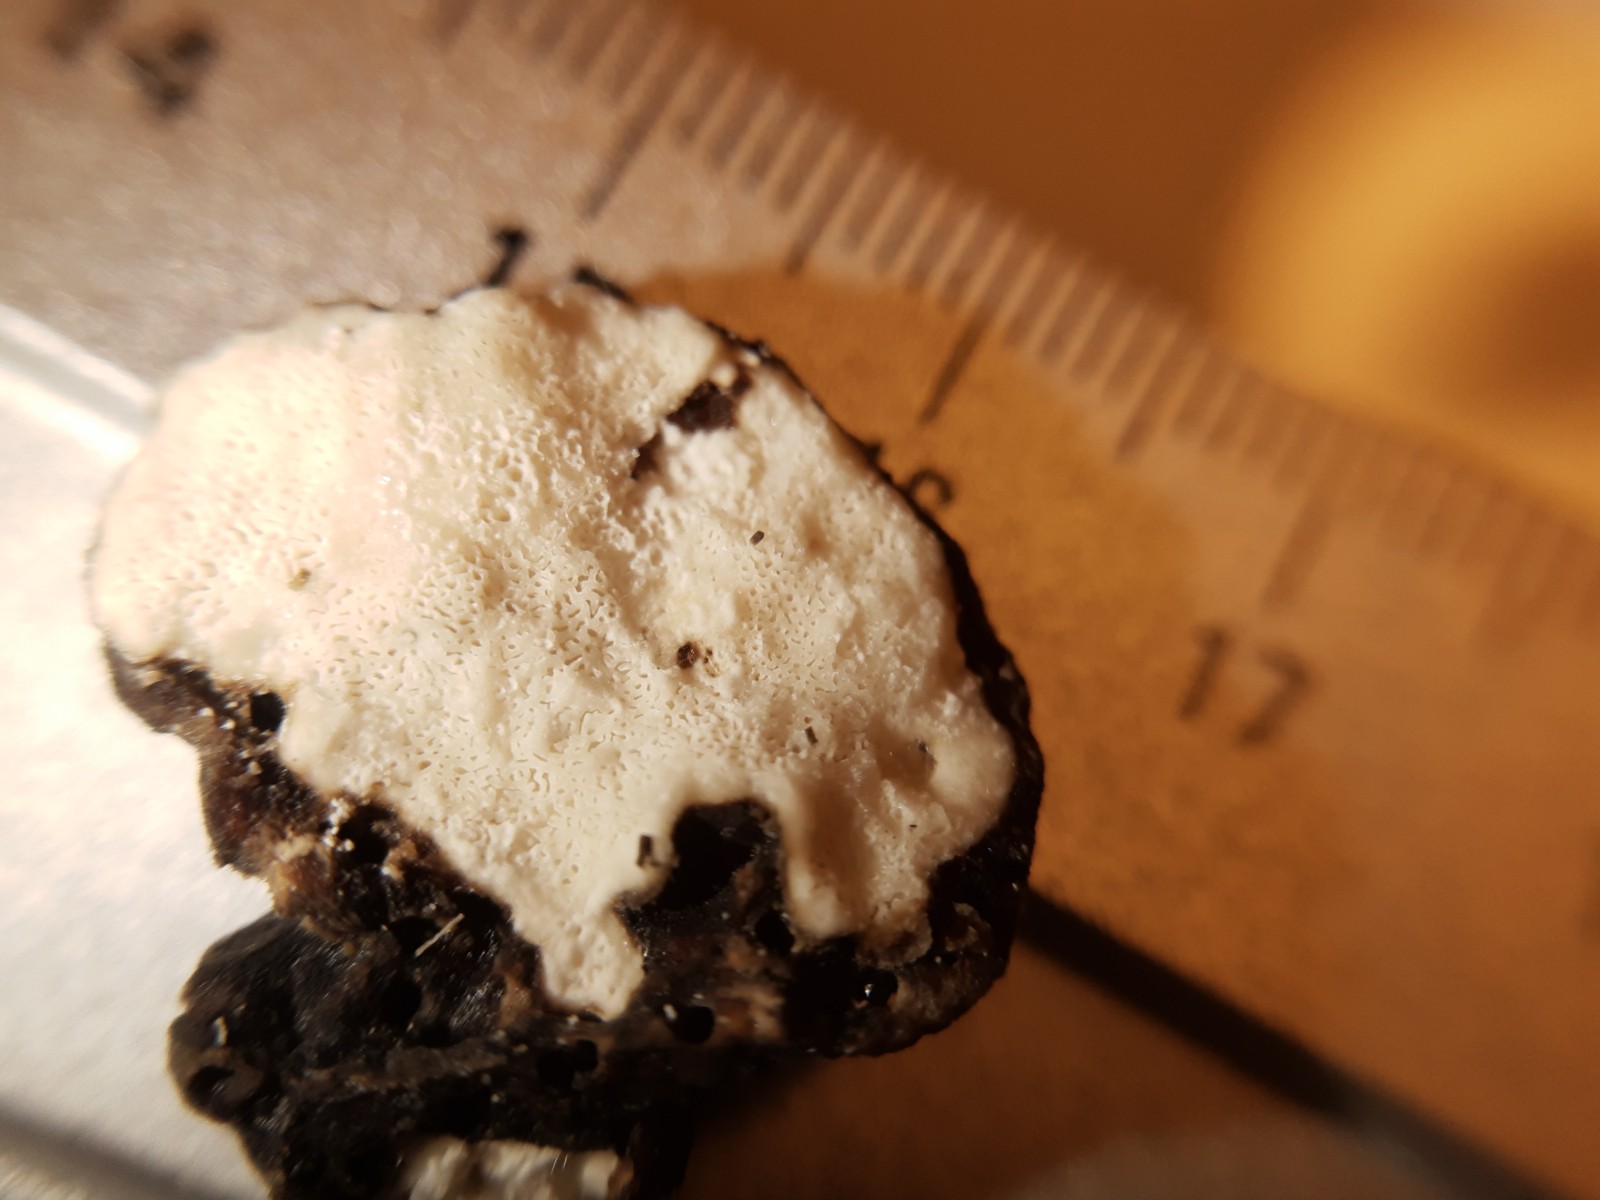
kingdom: Fungi
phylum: Basidiomycota
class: Agaricomycetes
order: Polyporales
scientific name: Polyporales
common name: poresvampordenen
